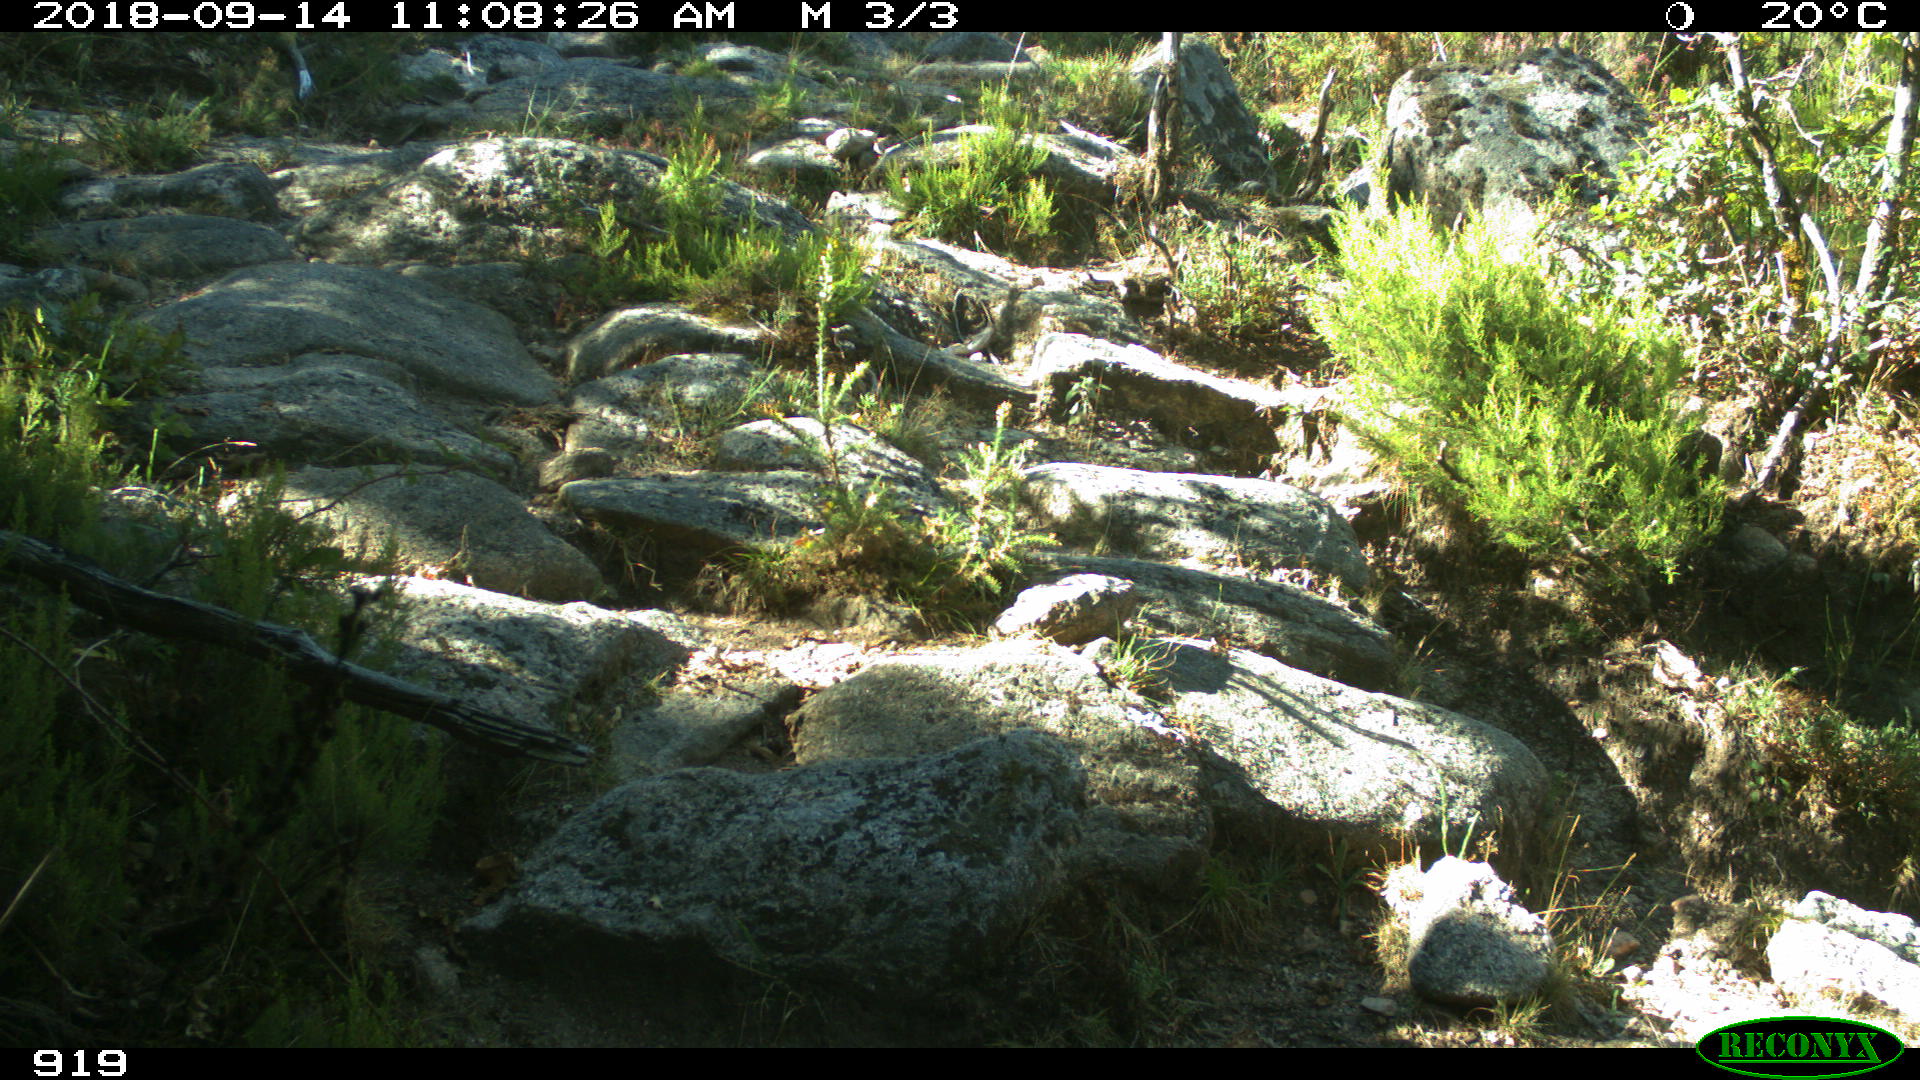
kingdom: Animalia
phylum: Chordata
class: Mammalia
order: Artiodactyla
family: Bovidae
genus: Bos
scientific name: Bos taurus
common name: Domesticated cattle
